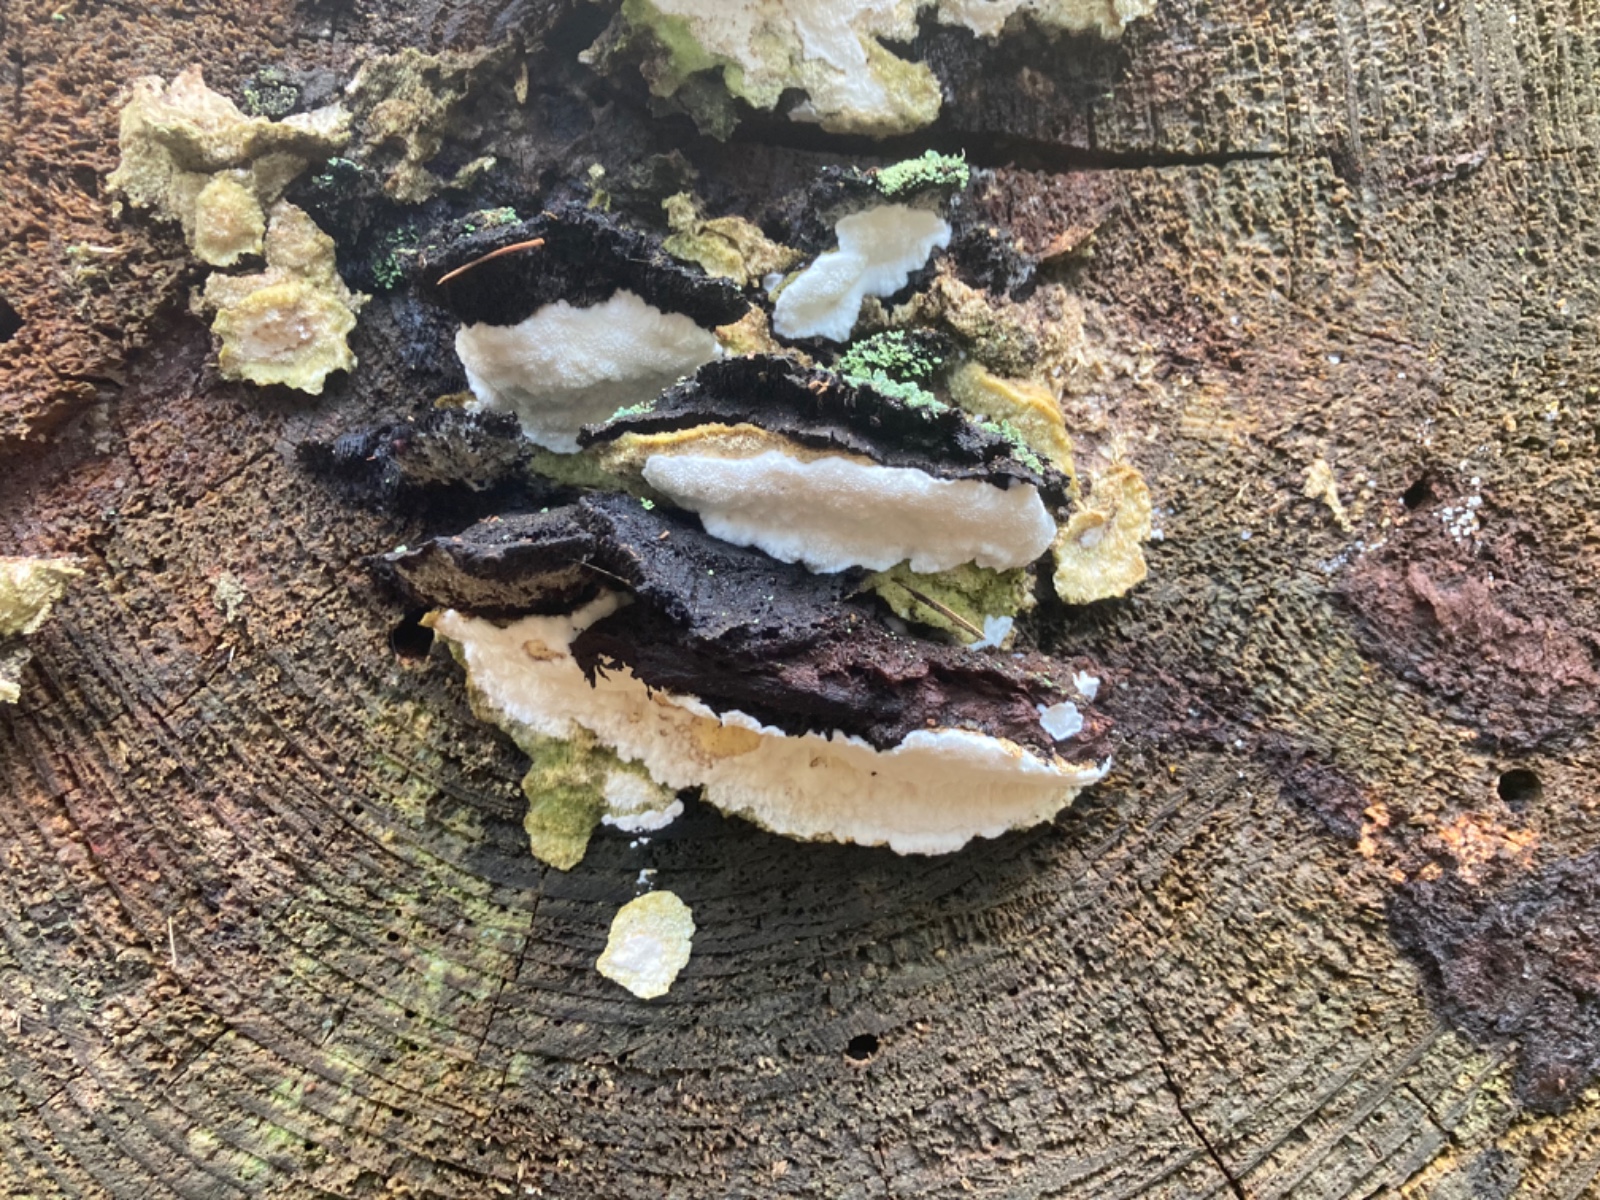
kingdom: Fungi
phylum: Basidiomycota
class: Agaricomycetes
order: Polyporales
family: Gelatoporiaceae
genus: Cinereomyces
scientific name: Cinereomyces lindbladii
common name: almindelig gråporesvamp
